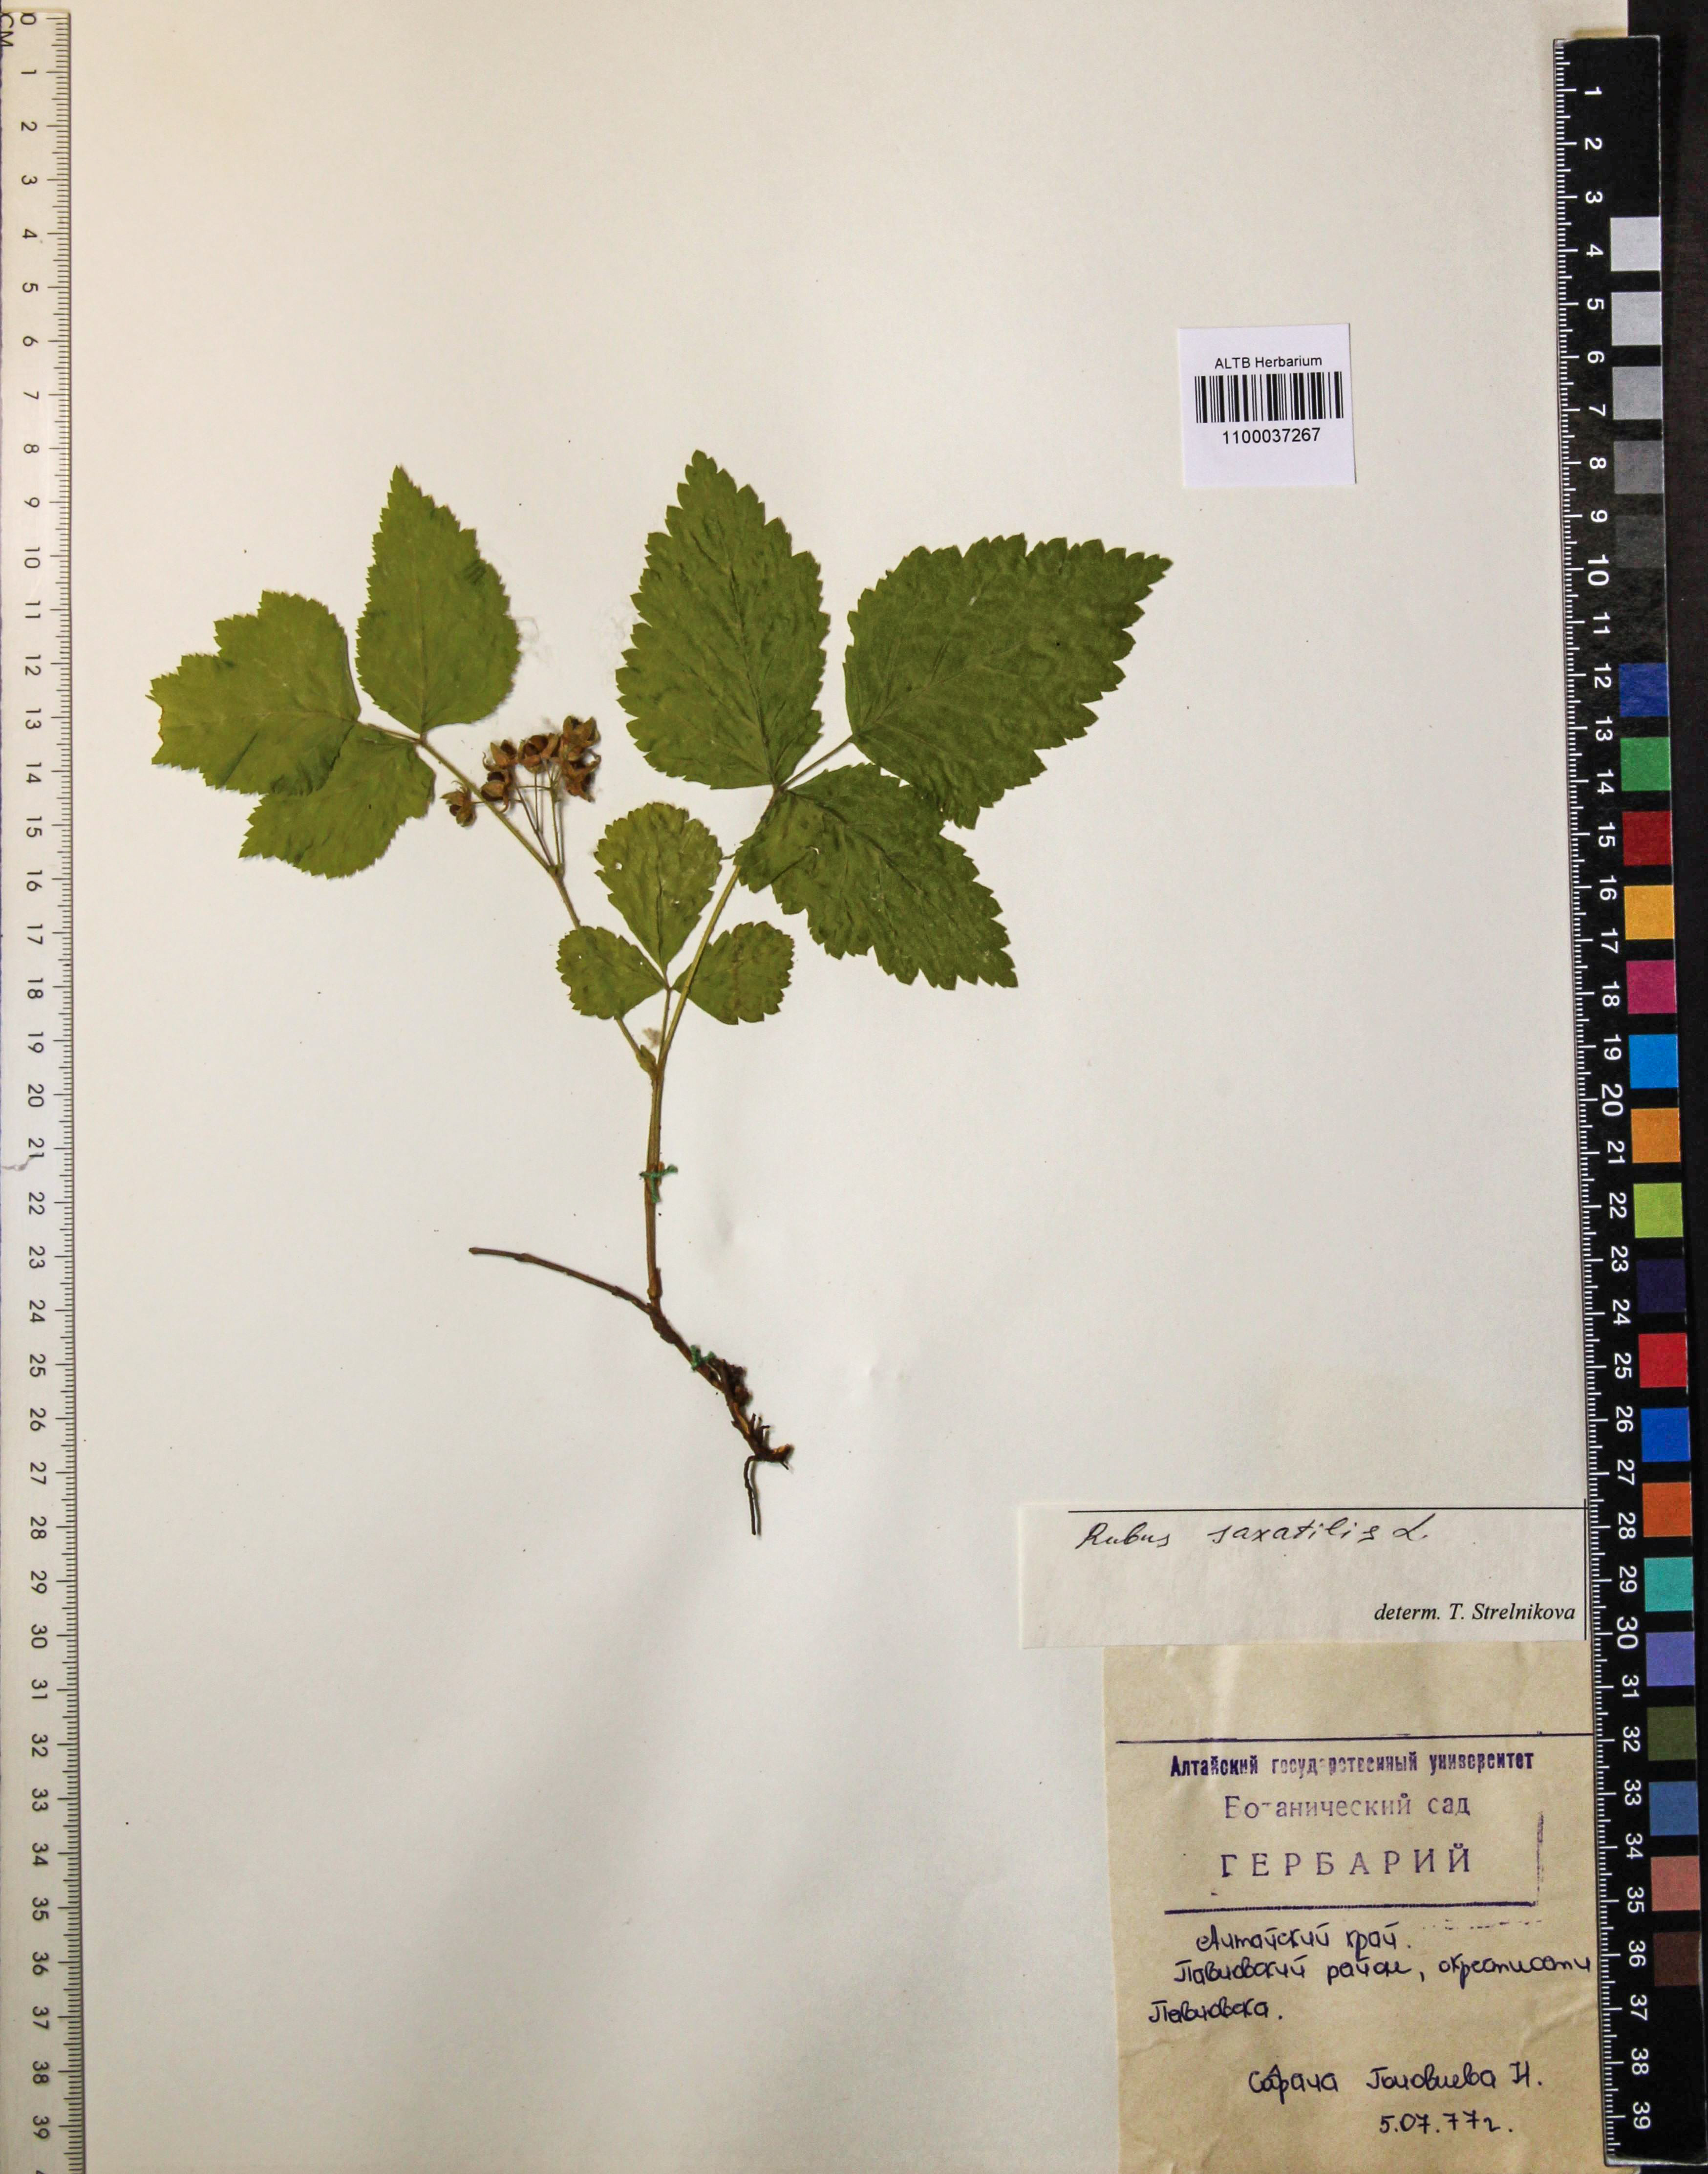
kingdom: Plantae
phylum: Tracheophyta
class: Magnoliopsida
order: Rosales
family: Rosaceae
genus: Rubus
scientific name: Rubus saxatilis
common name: Stone bramble
